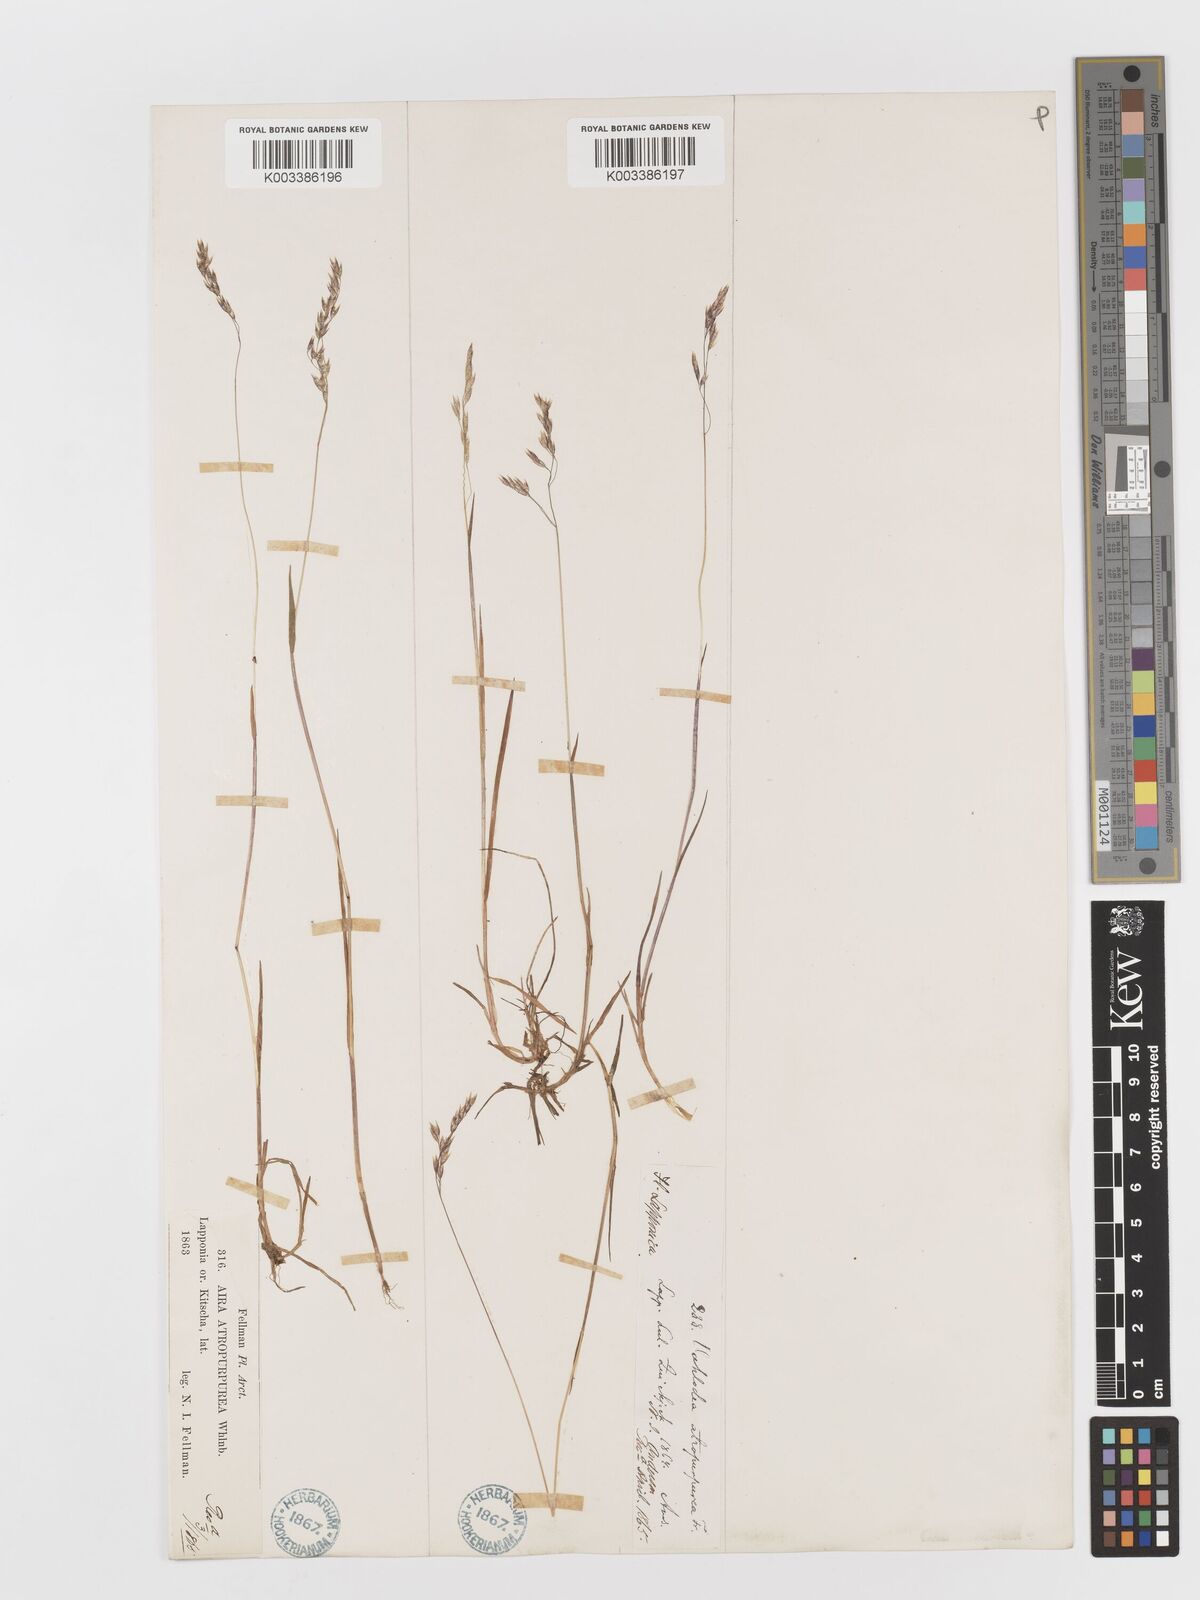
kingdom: Plantae
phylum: Tracheophyta
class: Liliopsida
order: Poales
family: Poaceae
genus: Vahlodea
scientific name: Vahlodea atropurpurea
